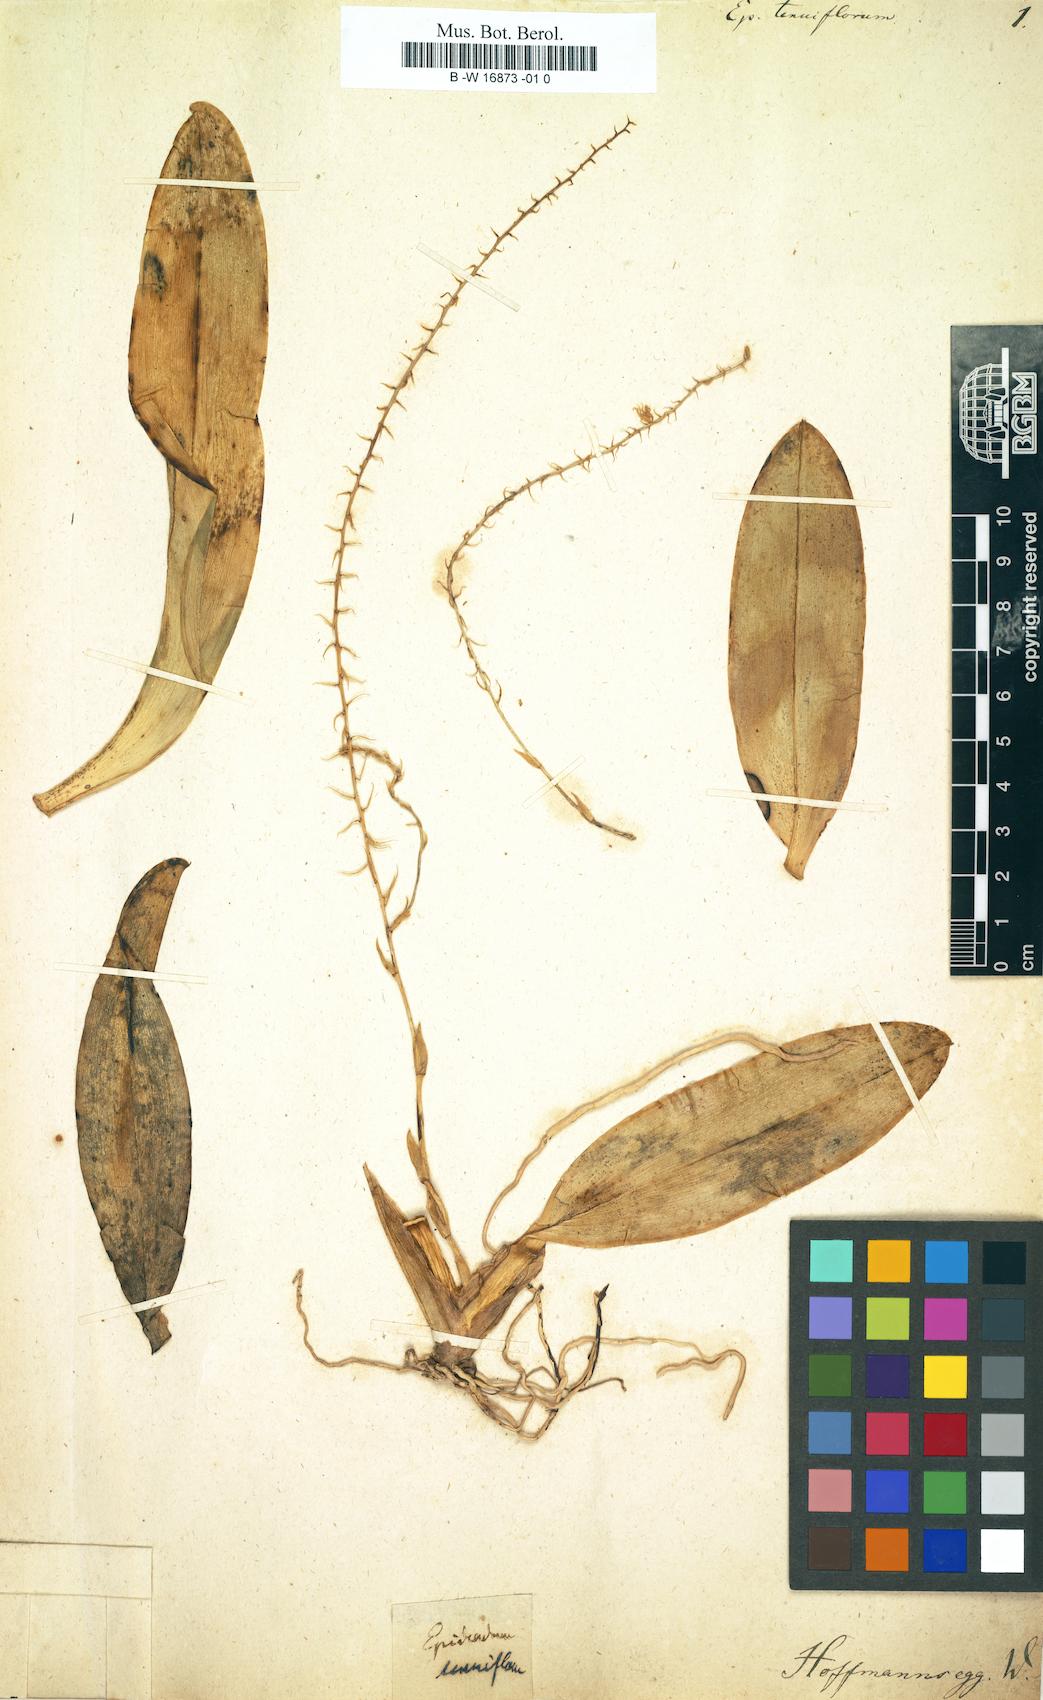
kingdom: Plantae
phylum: Tracheophyta
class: Liliopsida
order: Asparagales
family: Orchidaceae
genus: Epidendrum
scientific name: Epidendrum centropetalum
